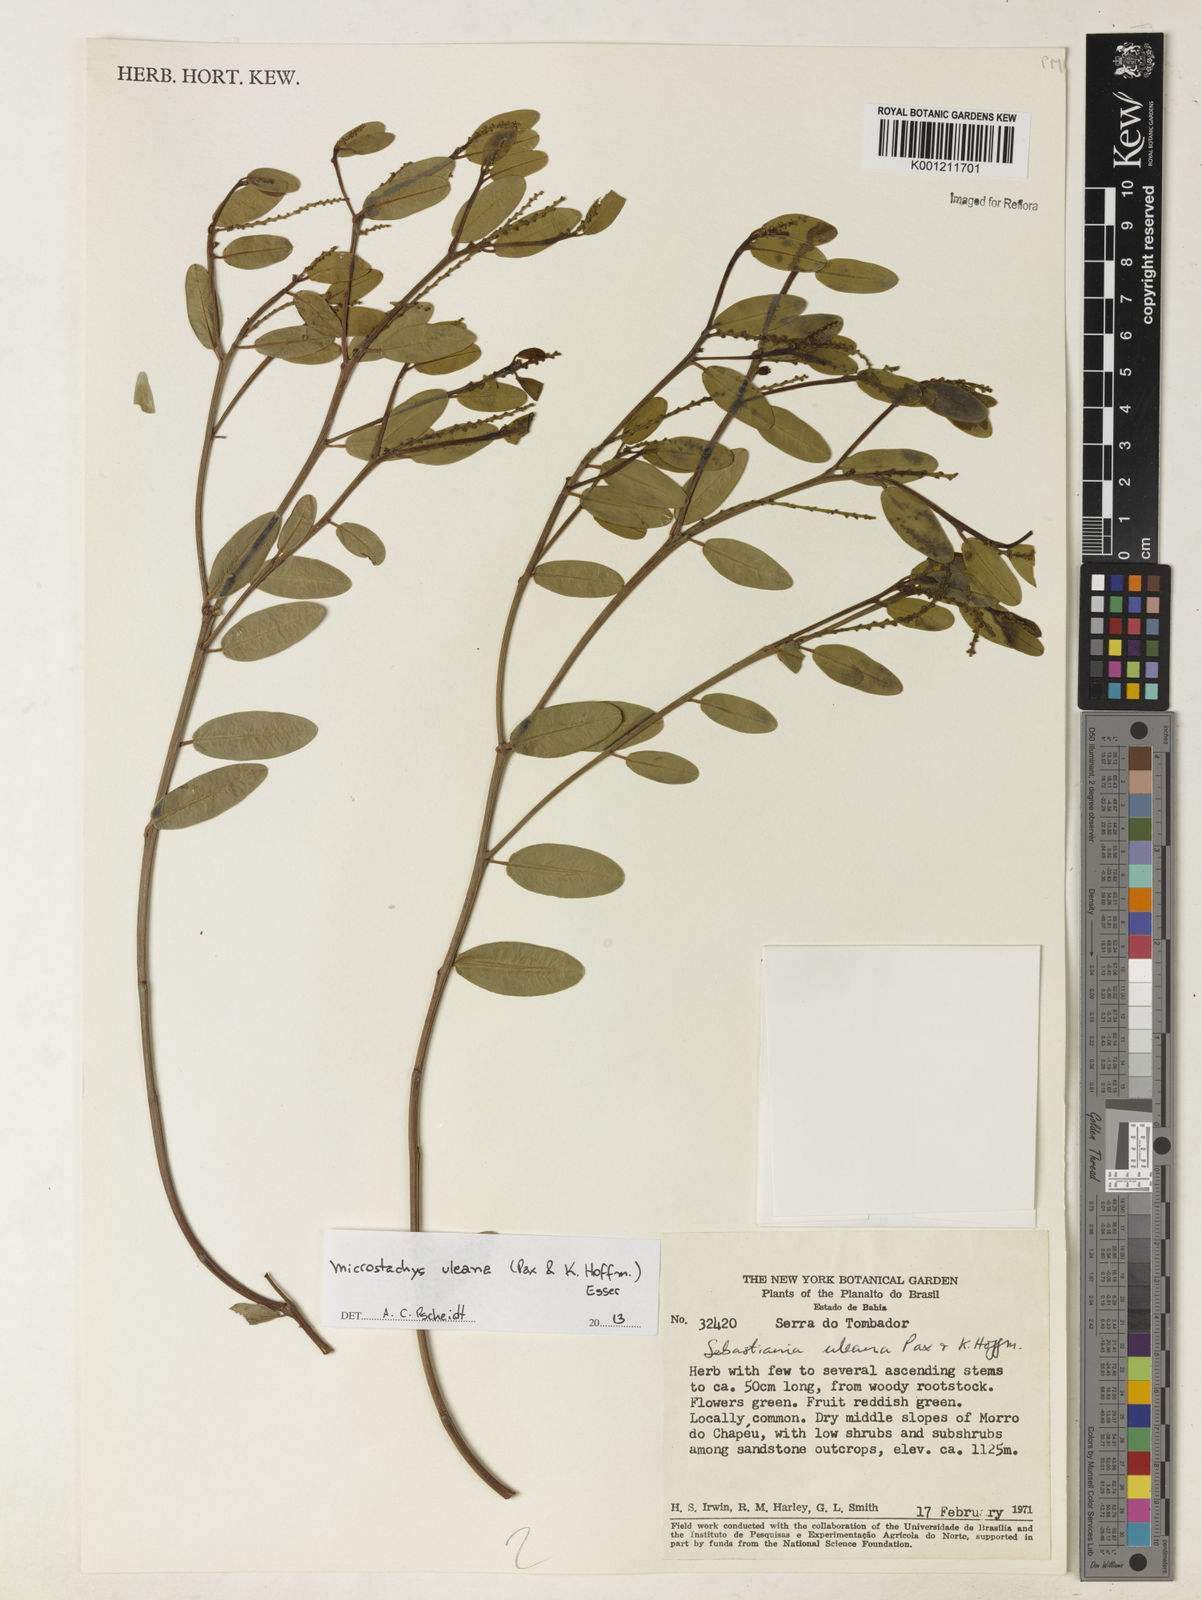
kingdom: Plantae
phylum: Tracheophyta
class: Magnoliopsida
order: Malpighiales
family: Euphorbiaceae
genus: Microstachys
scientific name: Microstachys uleana
